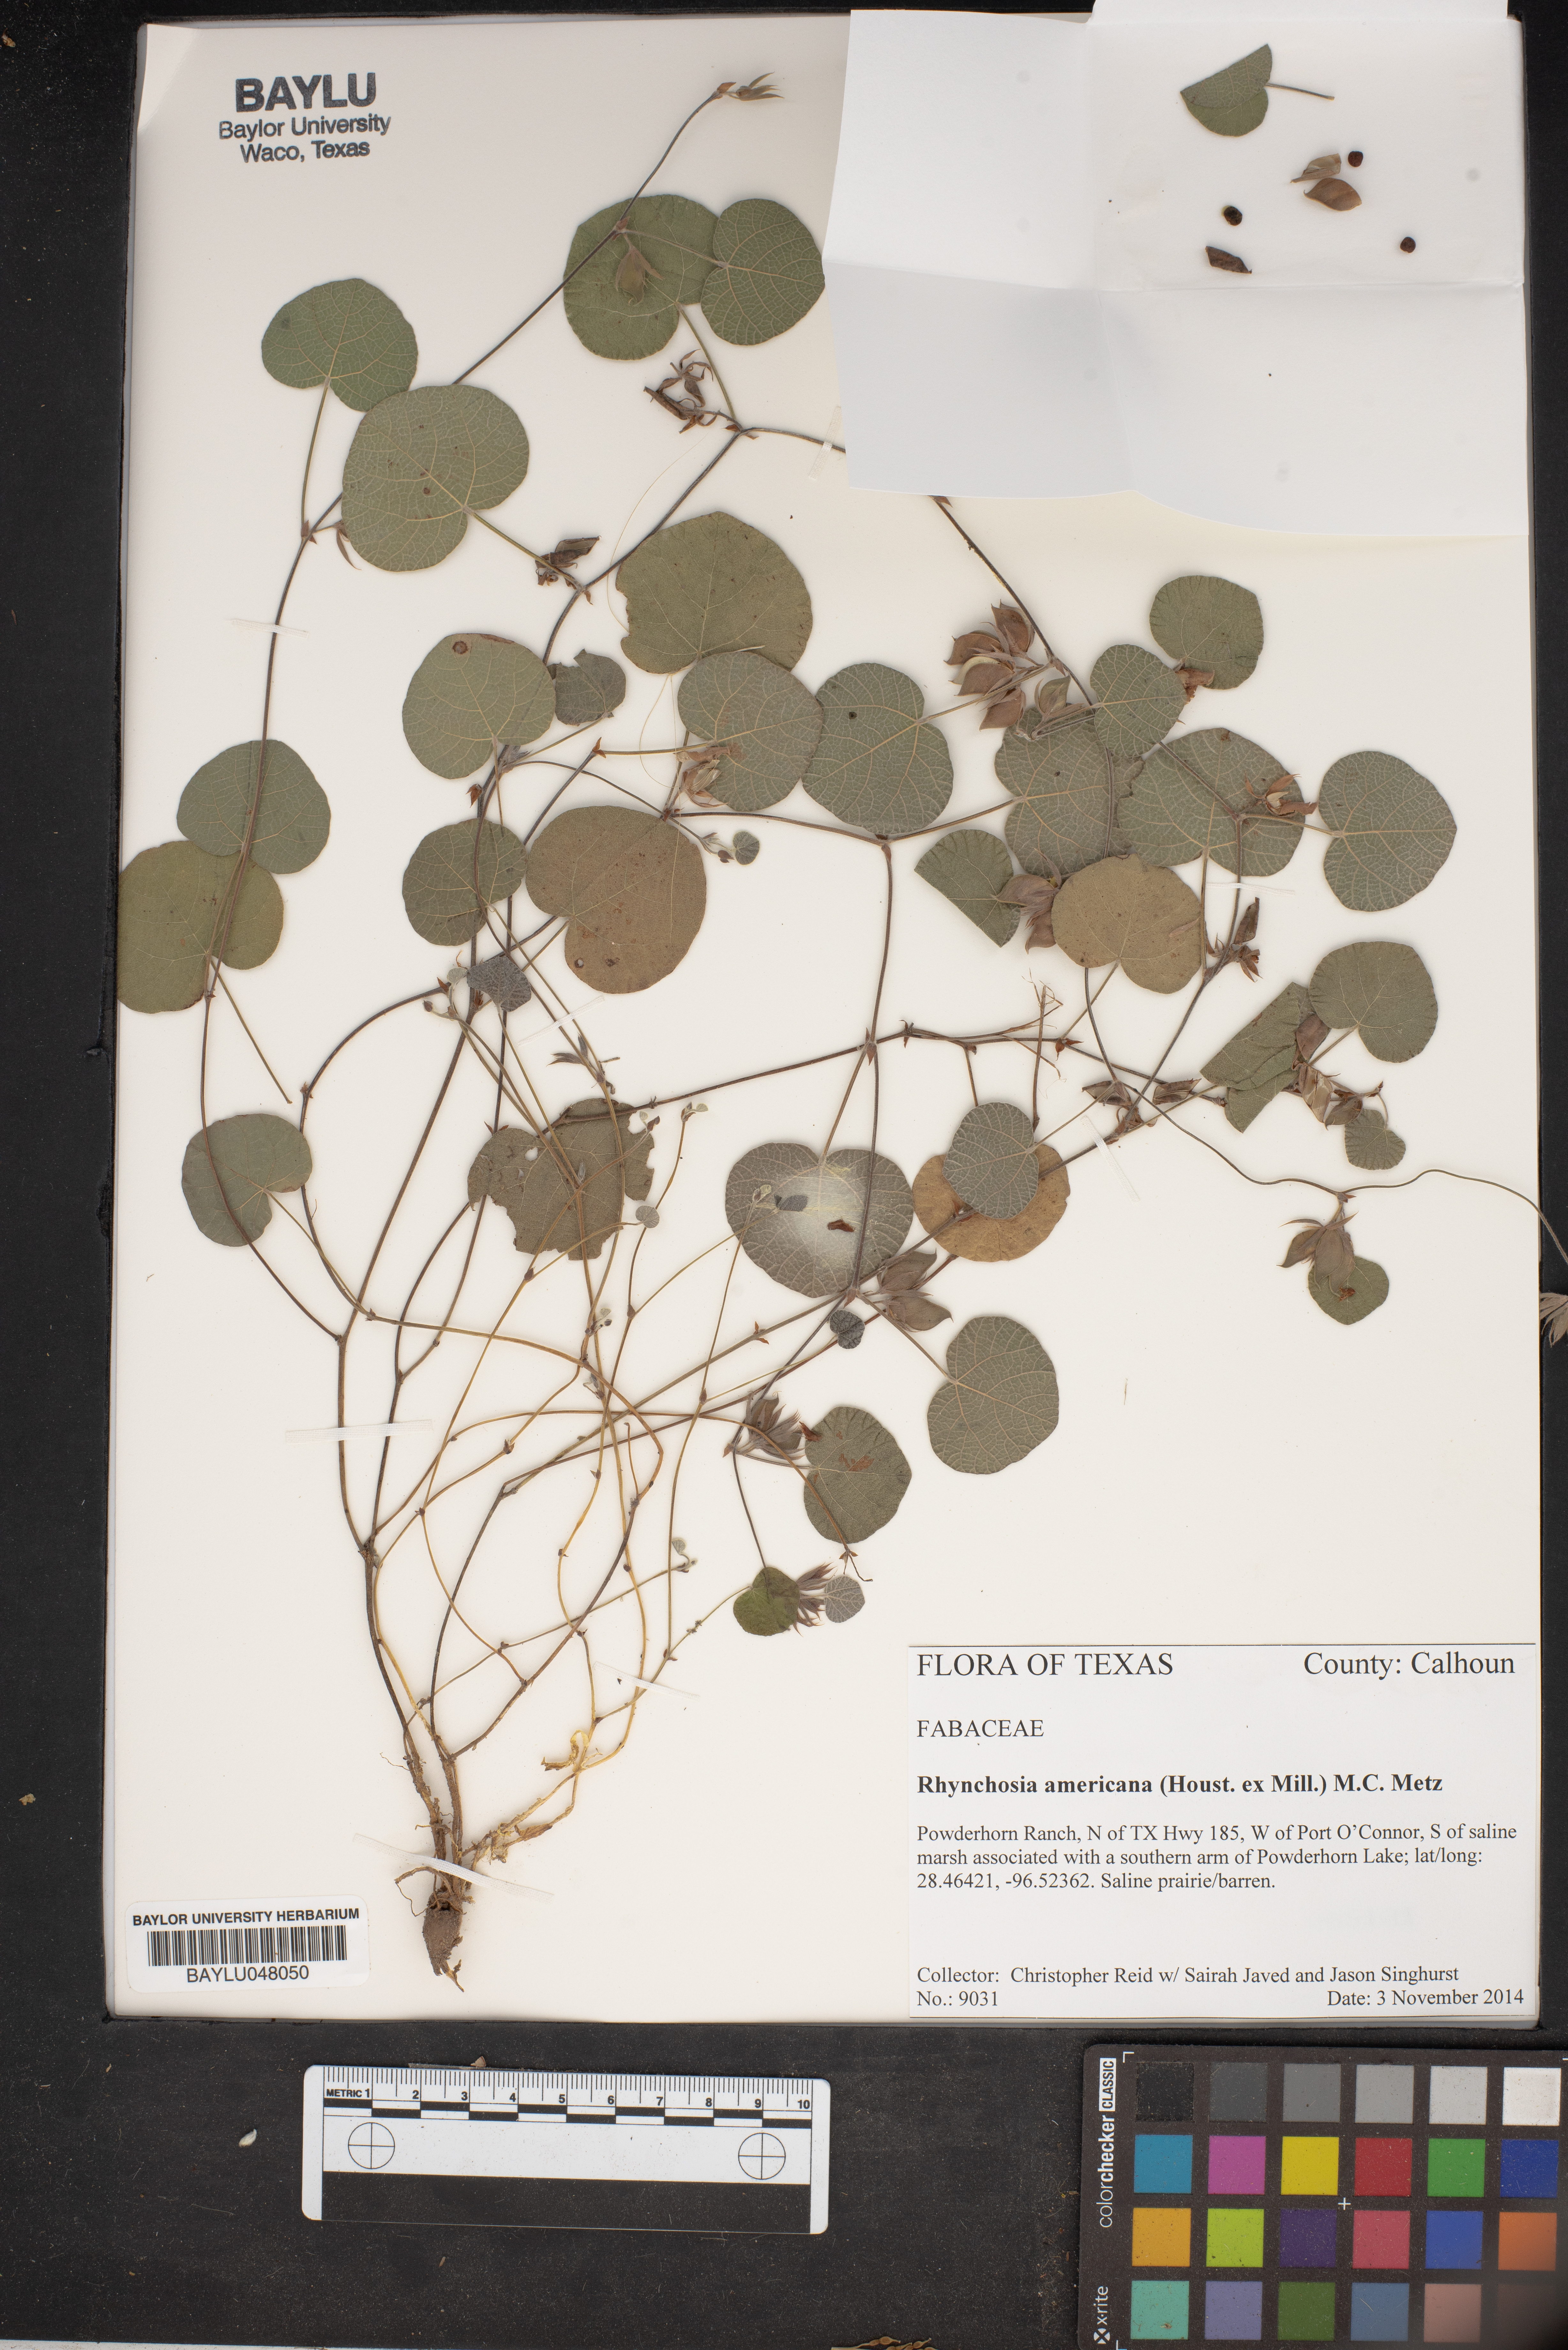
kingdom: Plantae
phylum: Tracheophyta
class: Magnoliopsida
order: Fabales
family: Fabaceae
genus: Rhynchosia
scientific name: Rhynchosia americana
